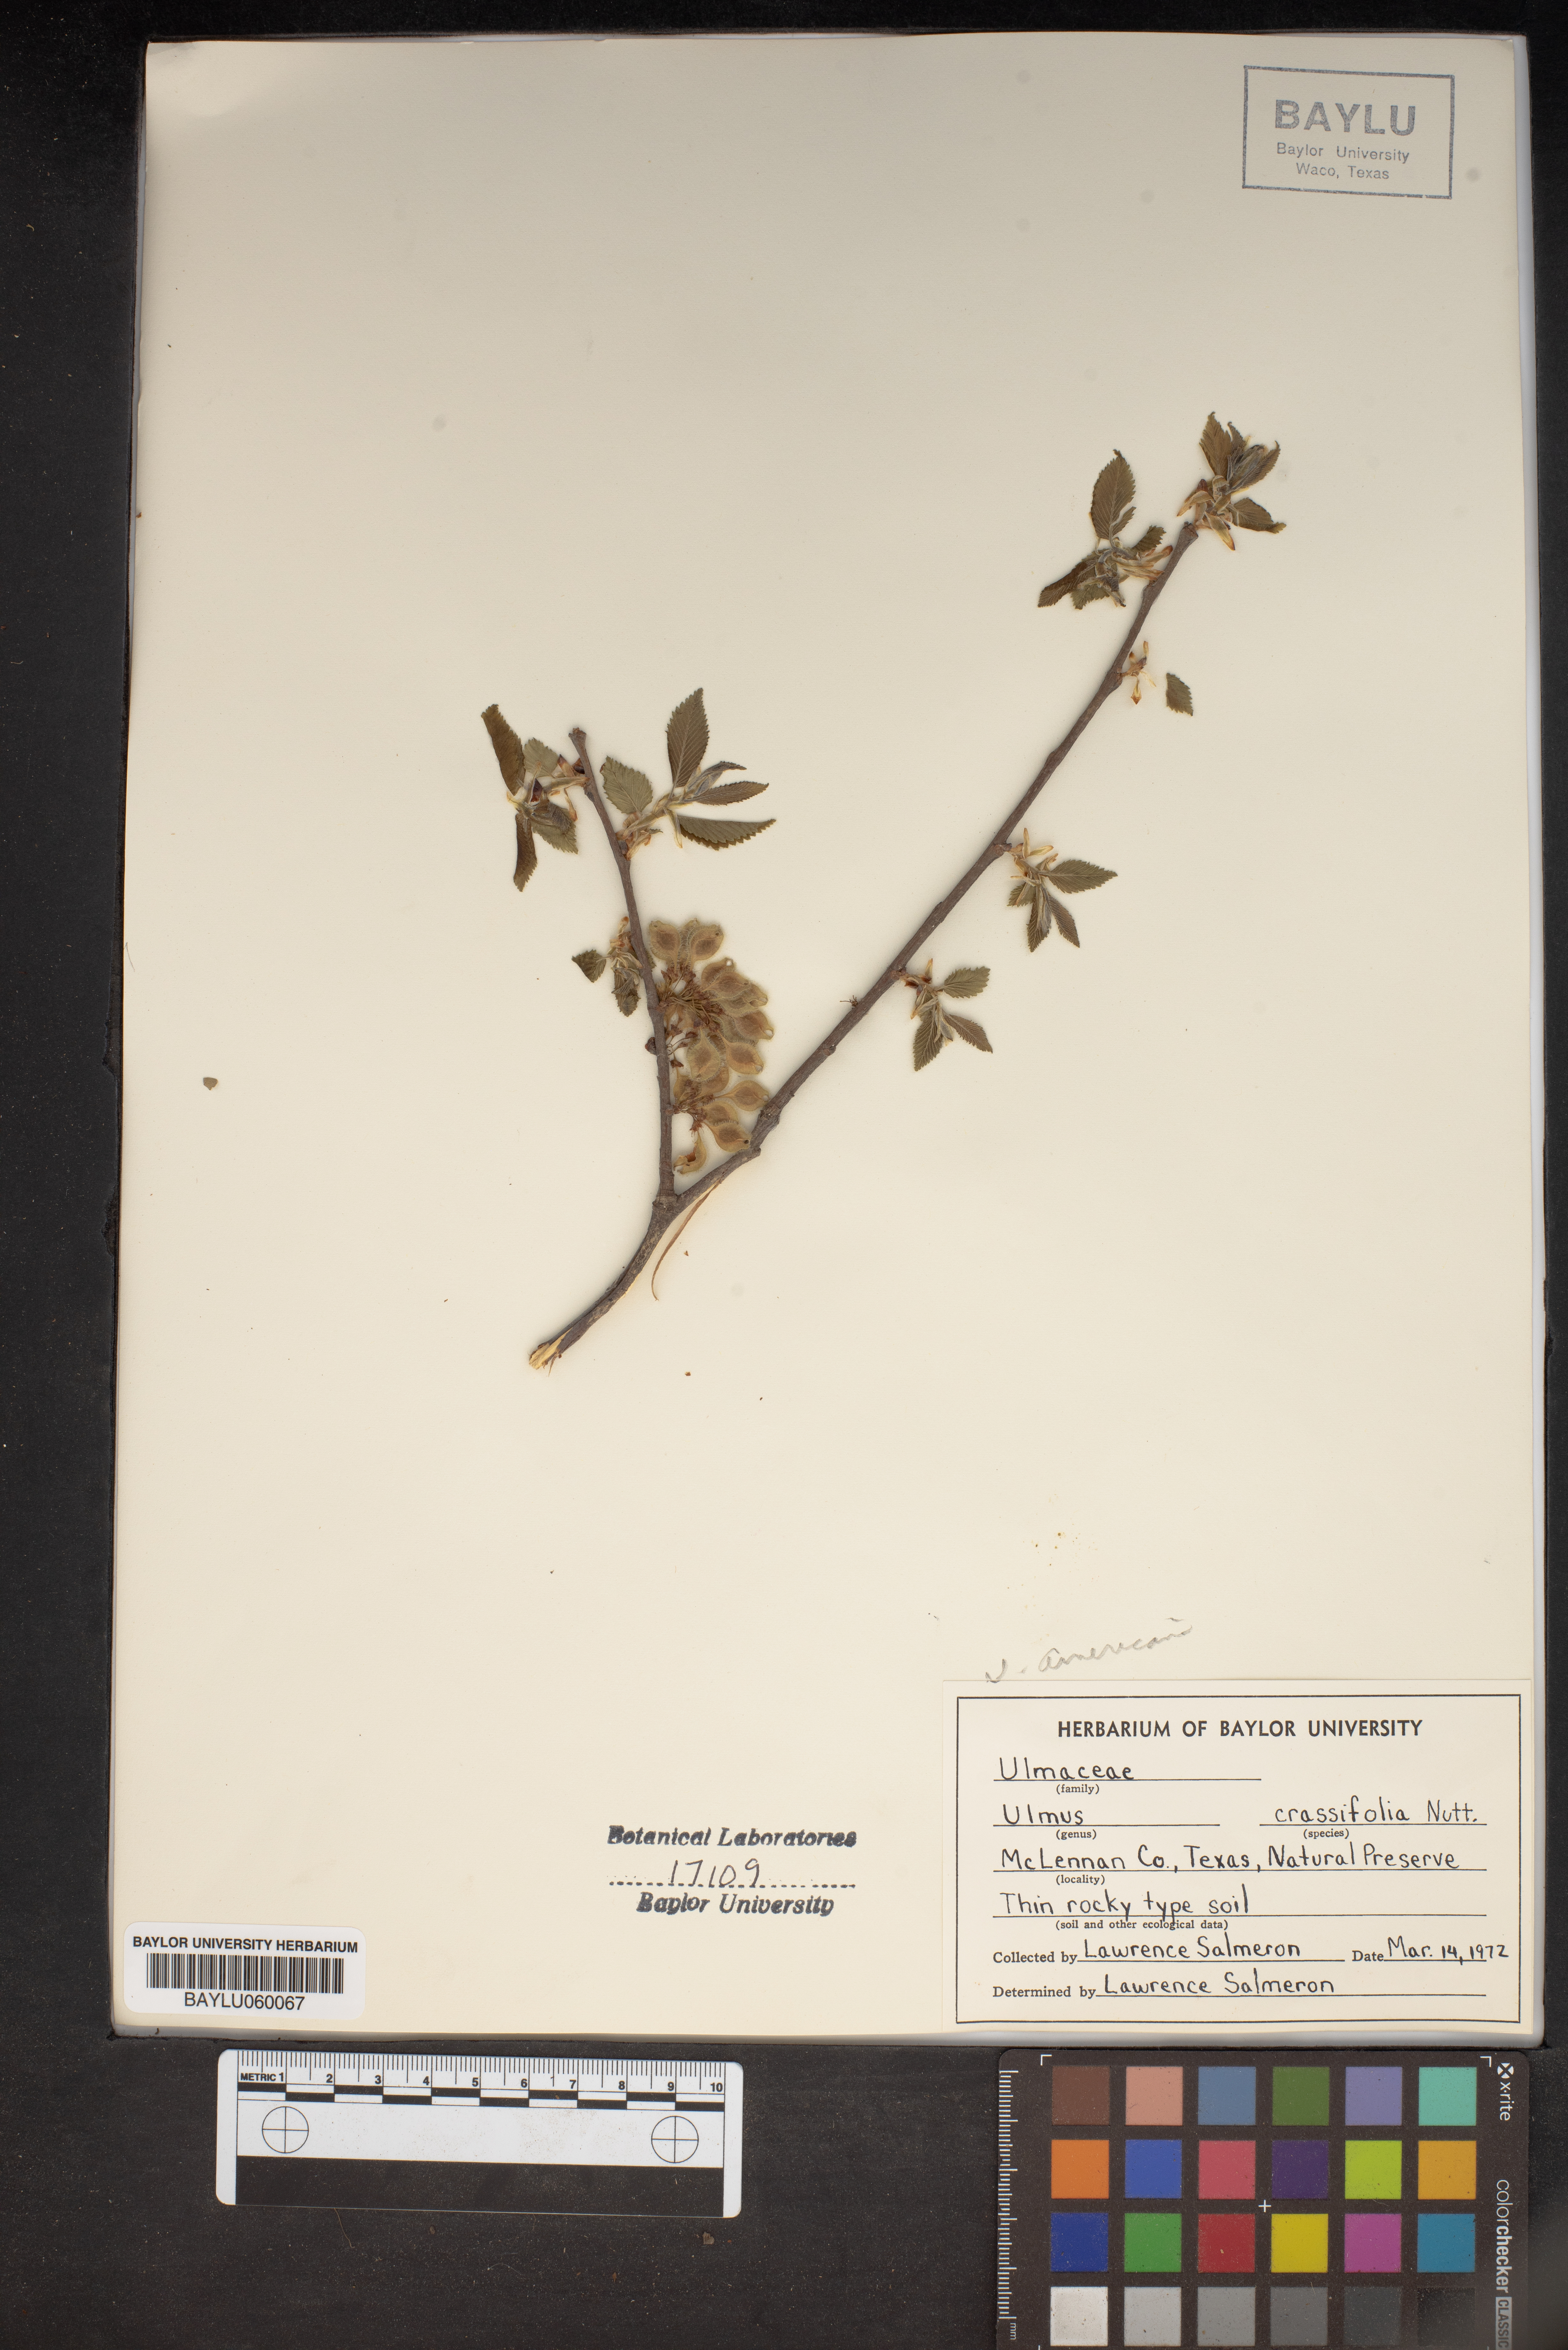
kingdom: Plantae
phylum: Tracheophyta
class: Magnoliopsida
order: Rosales
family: Ulmaceae
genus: Ulmus
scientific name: Ulmus crassifolia
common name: Basket elm
